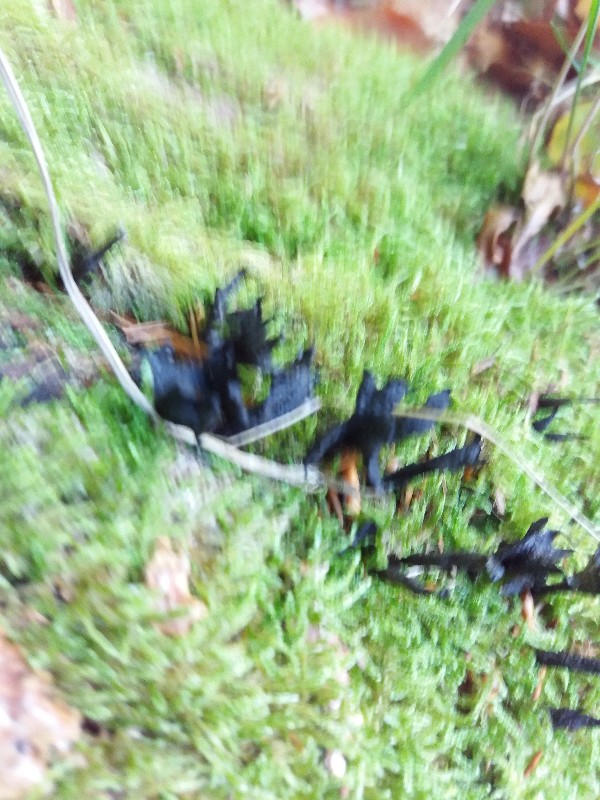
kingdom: Fungi
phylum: Ascomycota
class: Sordariomycetes
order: Xylariales
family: Xylariaceae
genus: Xylaria
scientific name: Xylaria hypoxylon
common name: grenet stødsvamp
